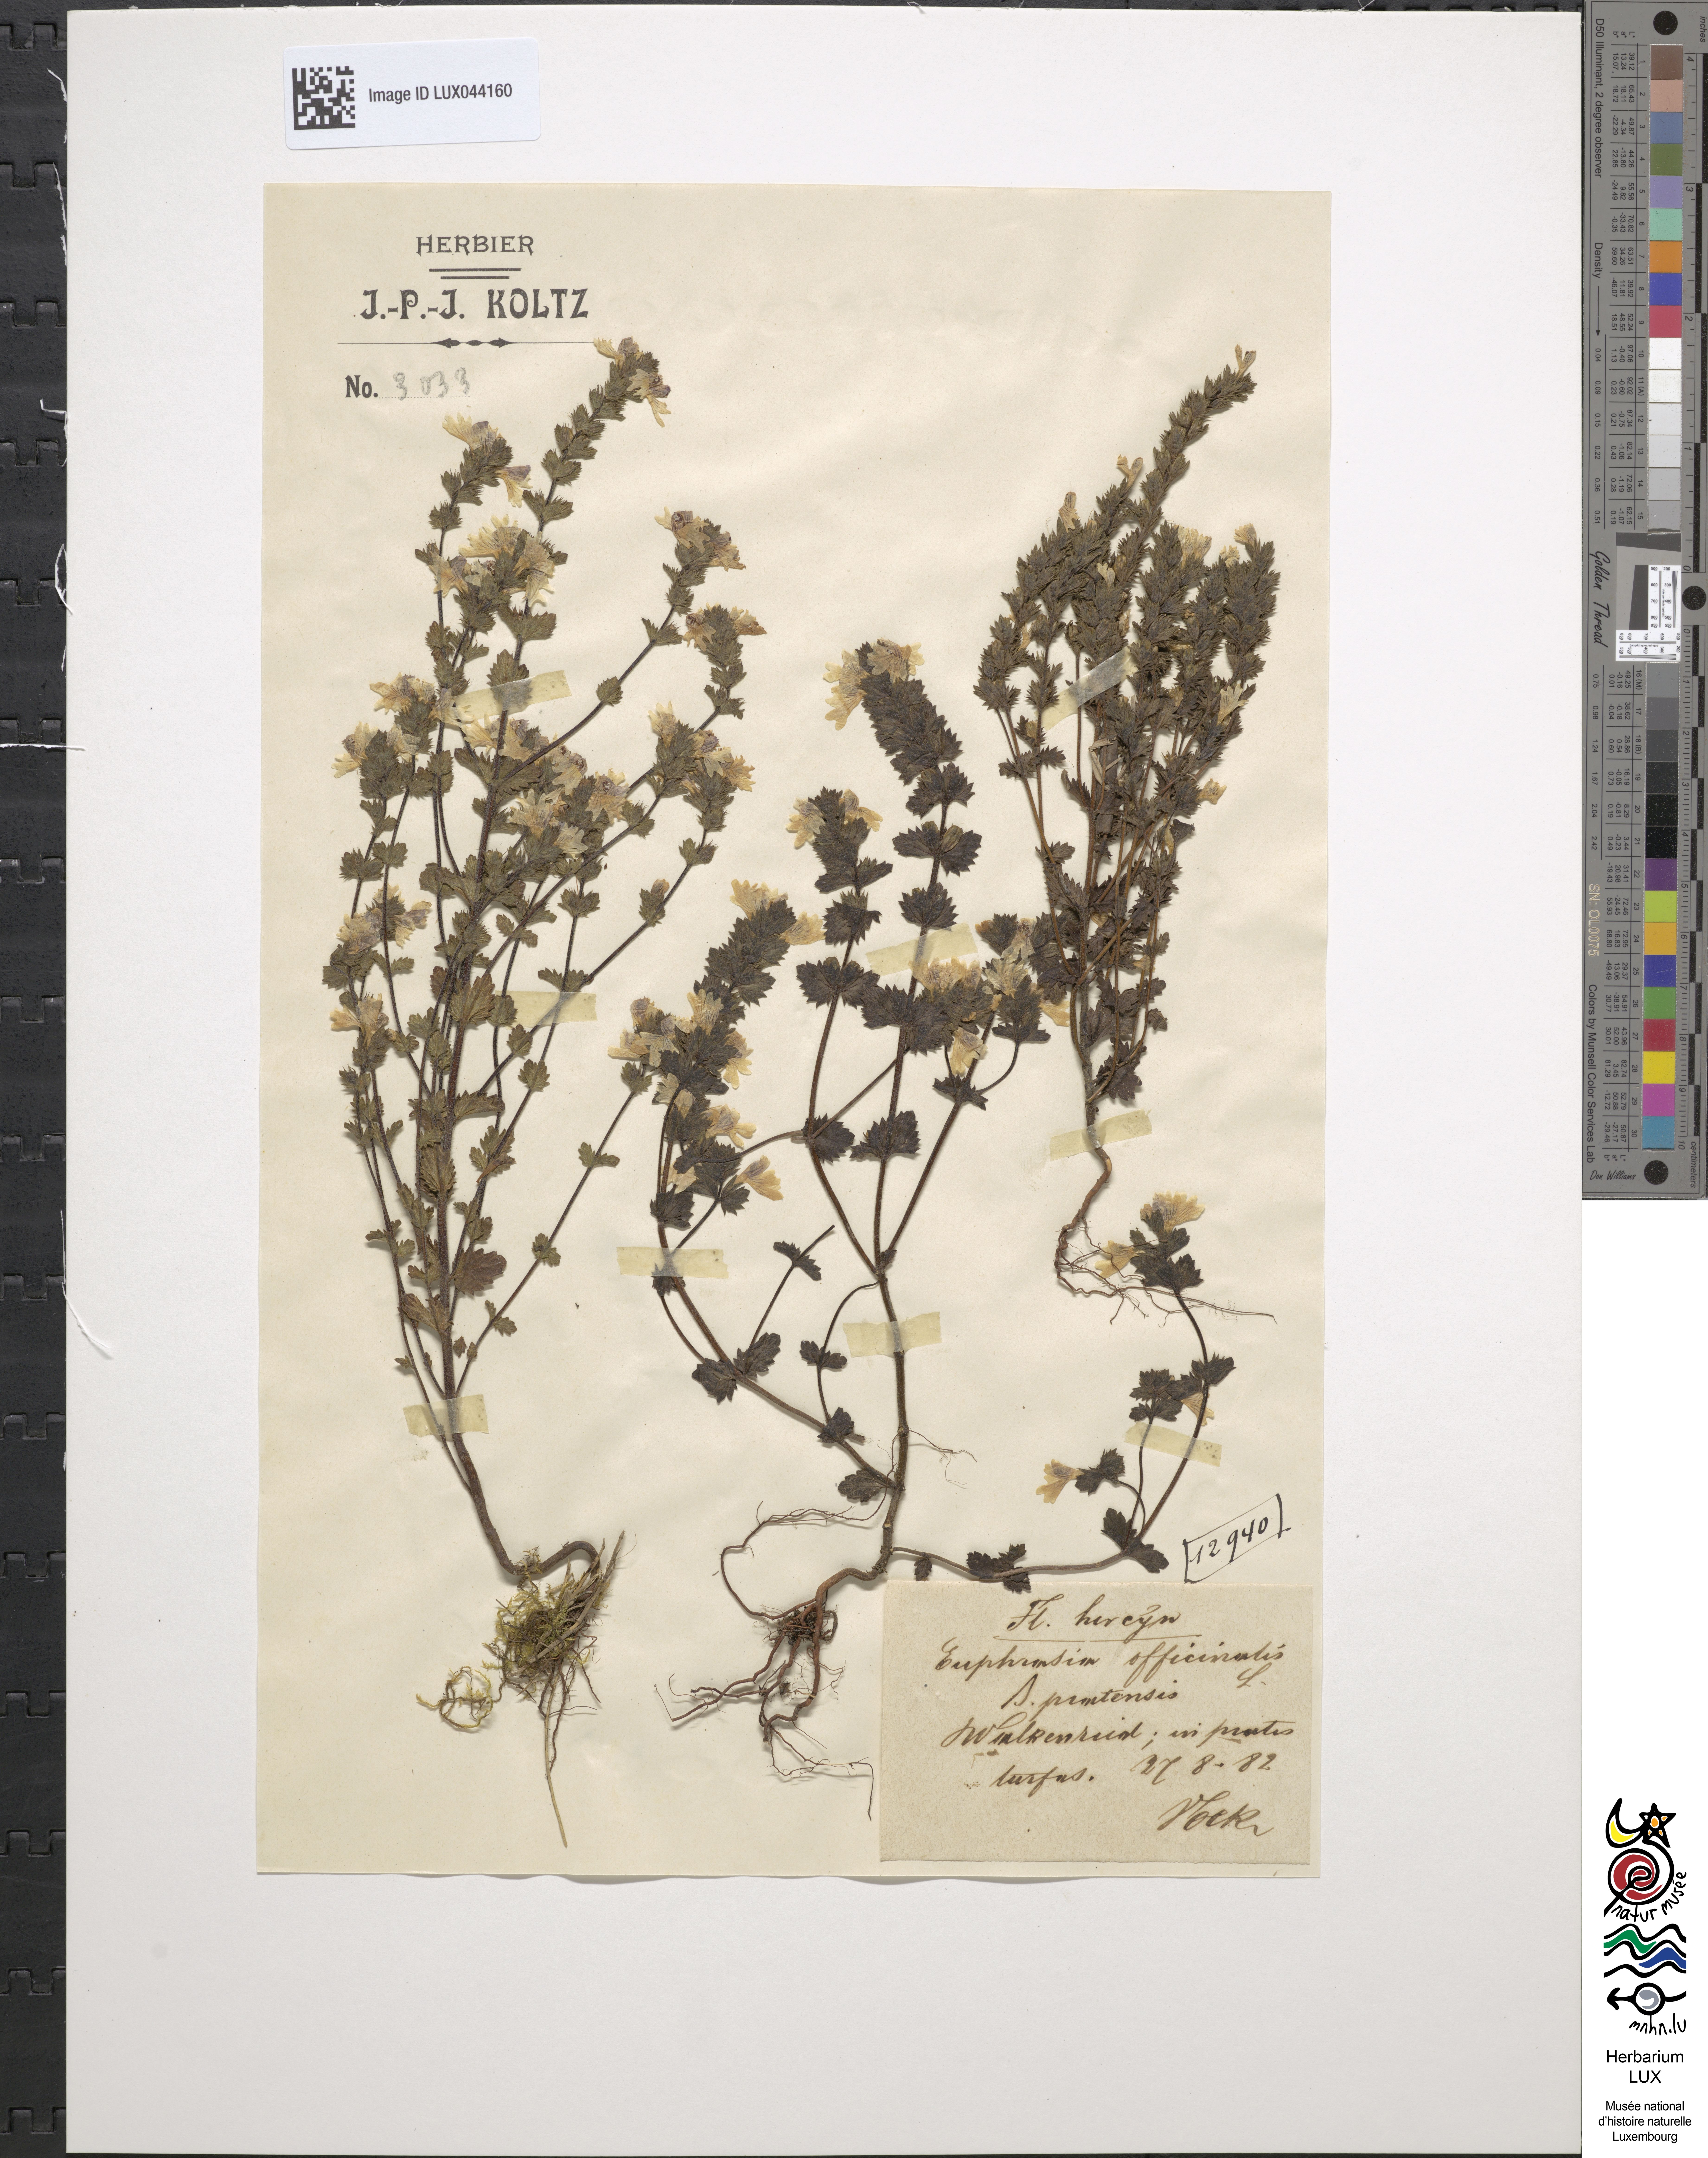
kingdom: Plantae
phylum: Tracheophyta
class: Magnoliopsida
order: Lamiales
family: Orobanchaceae
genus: Euphrasia
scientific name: Euphrasia officinalis
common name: Eyebright
